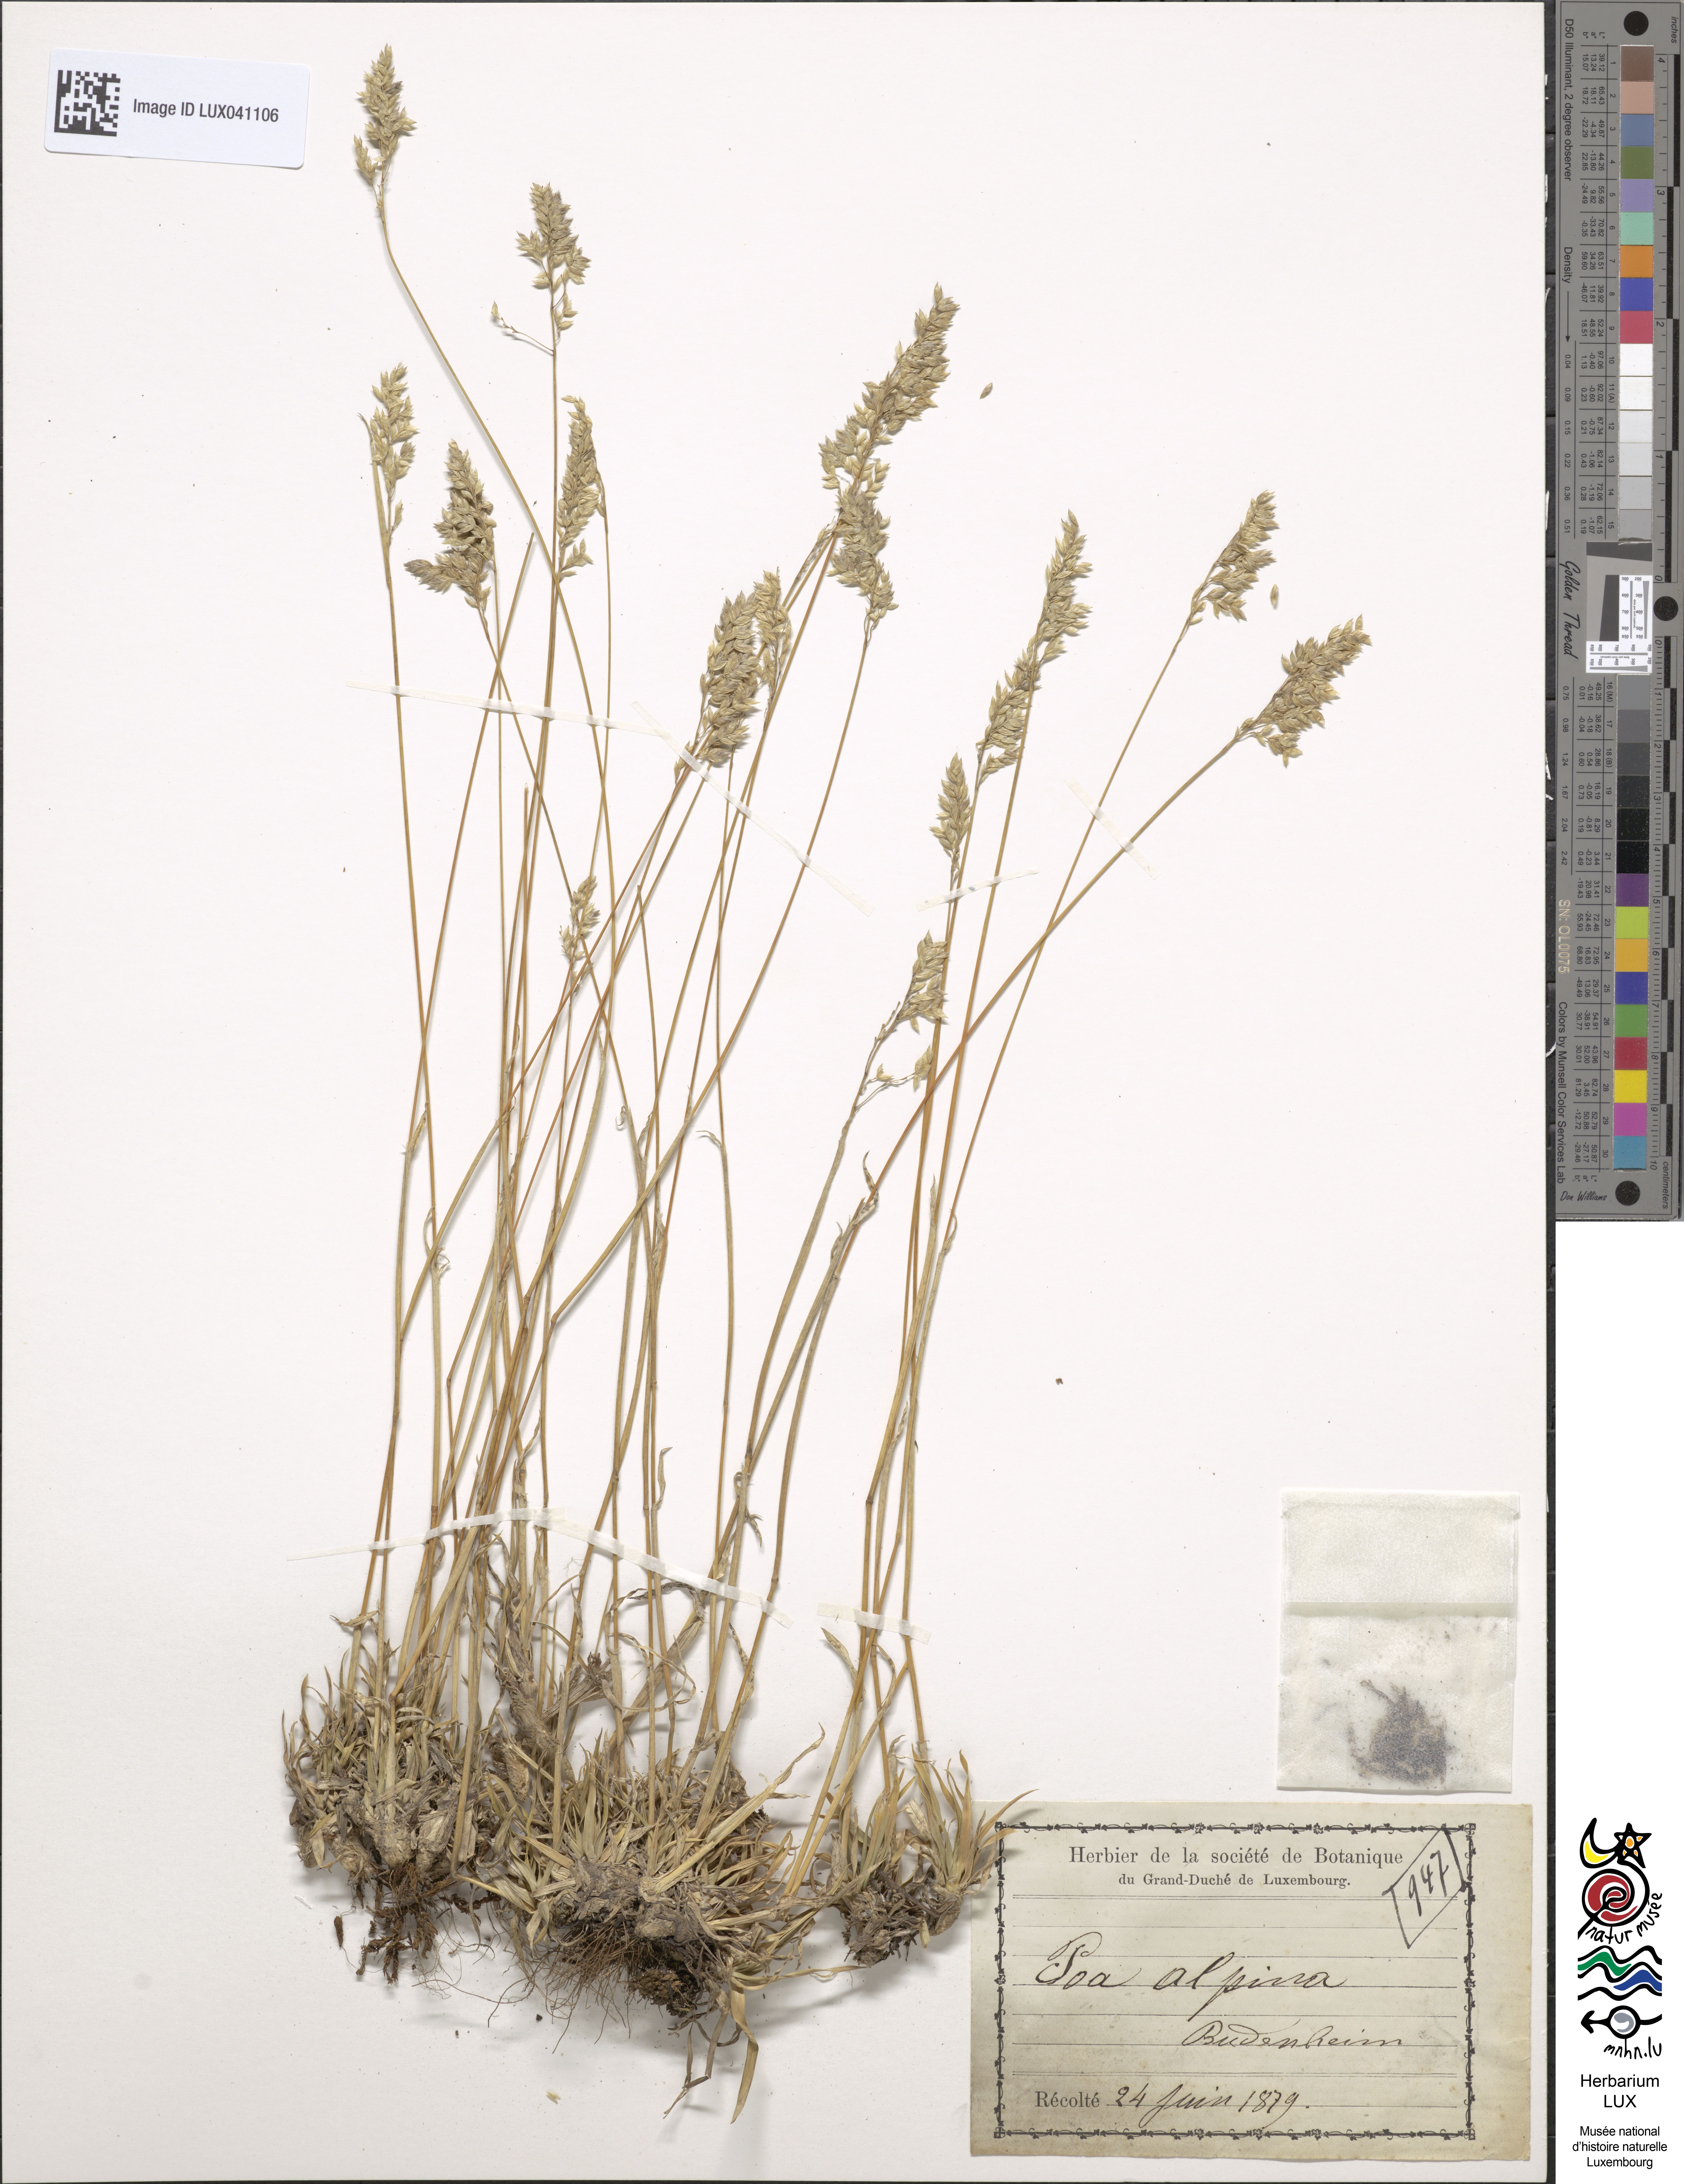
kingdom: Plantae
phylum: Tracheophyta
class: Liliopsida
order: Poales
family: Poaceae
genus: Poa
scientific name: Poa alpina
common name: Alpine bluegrass
